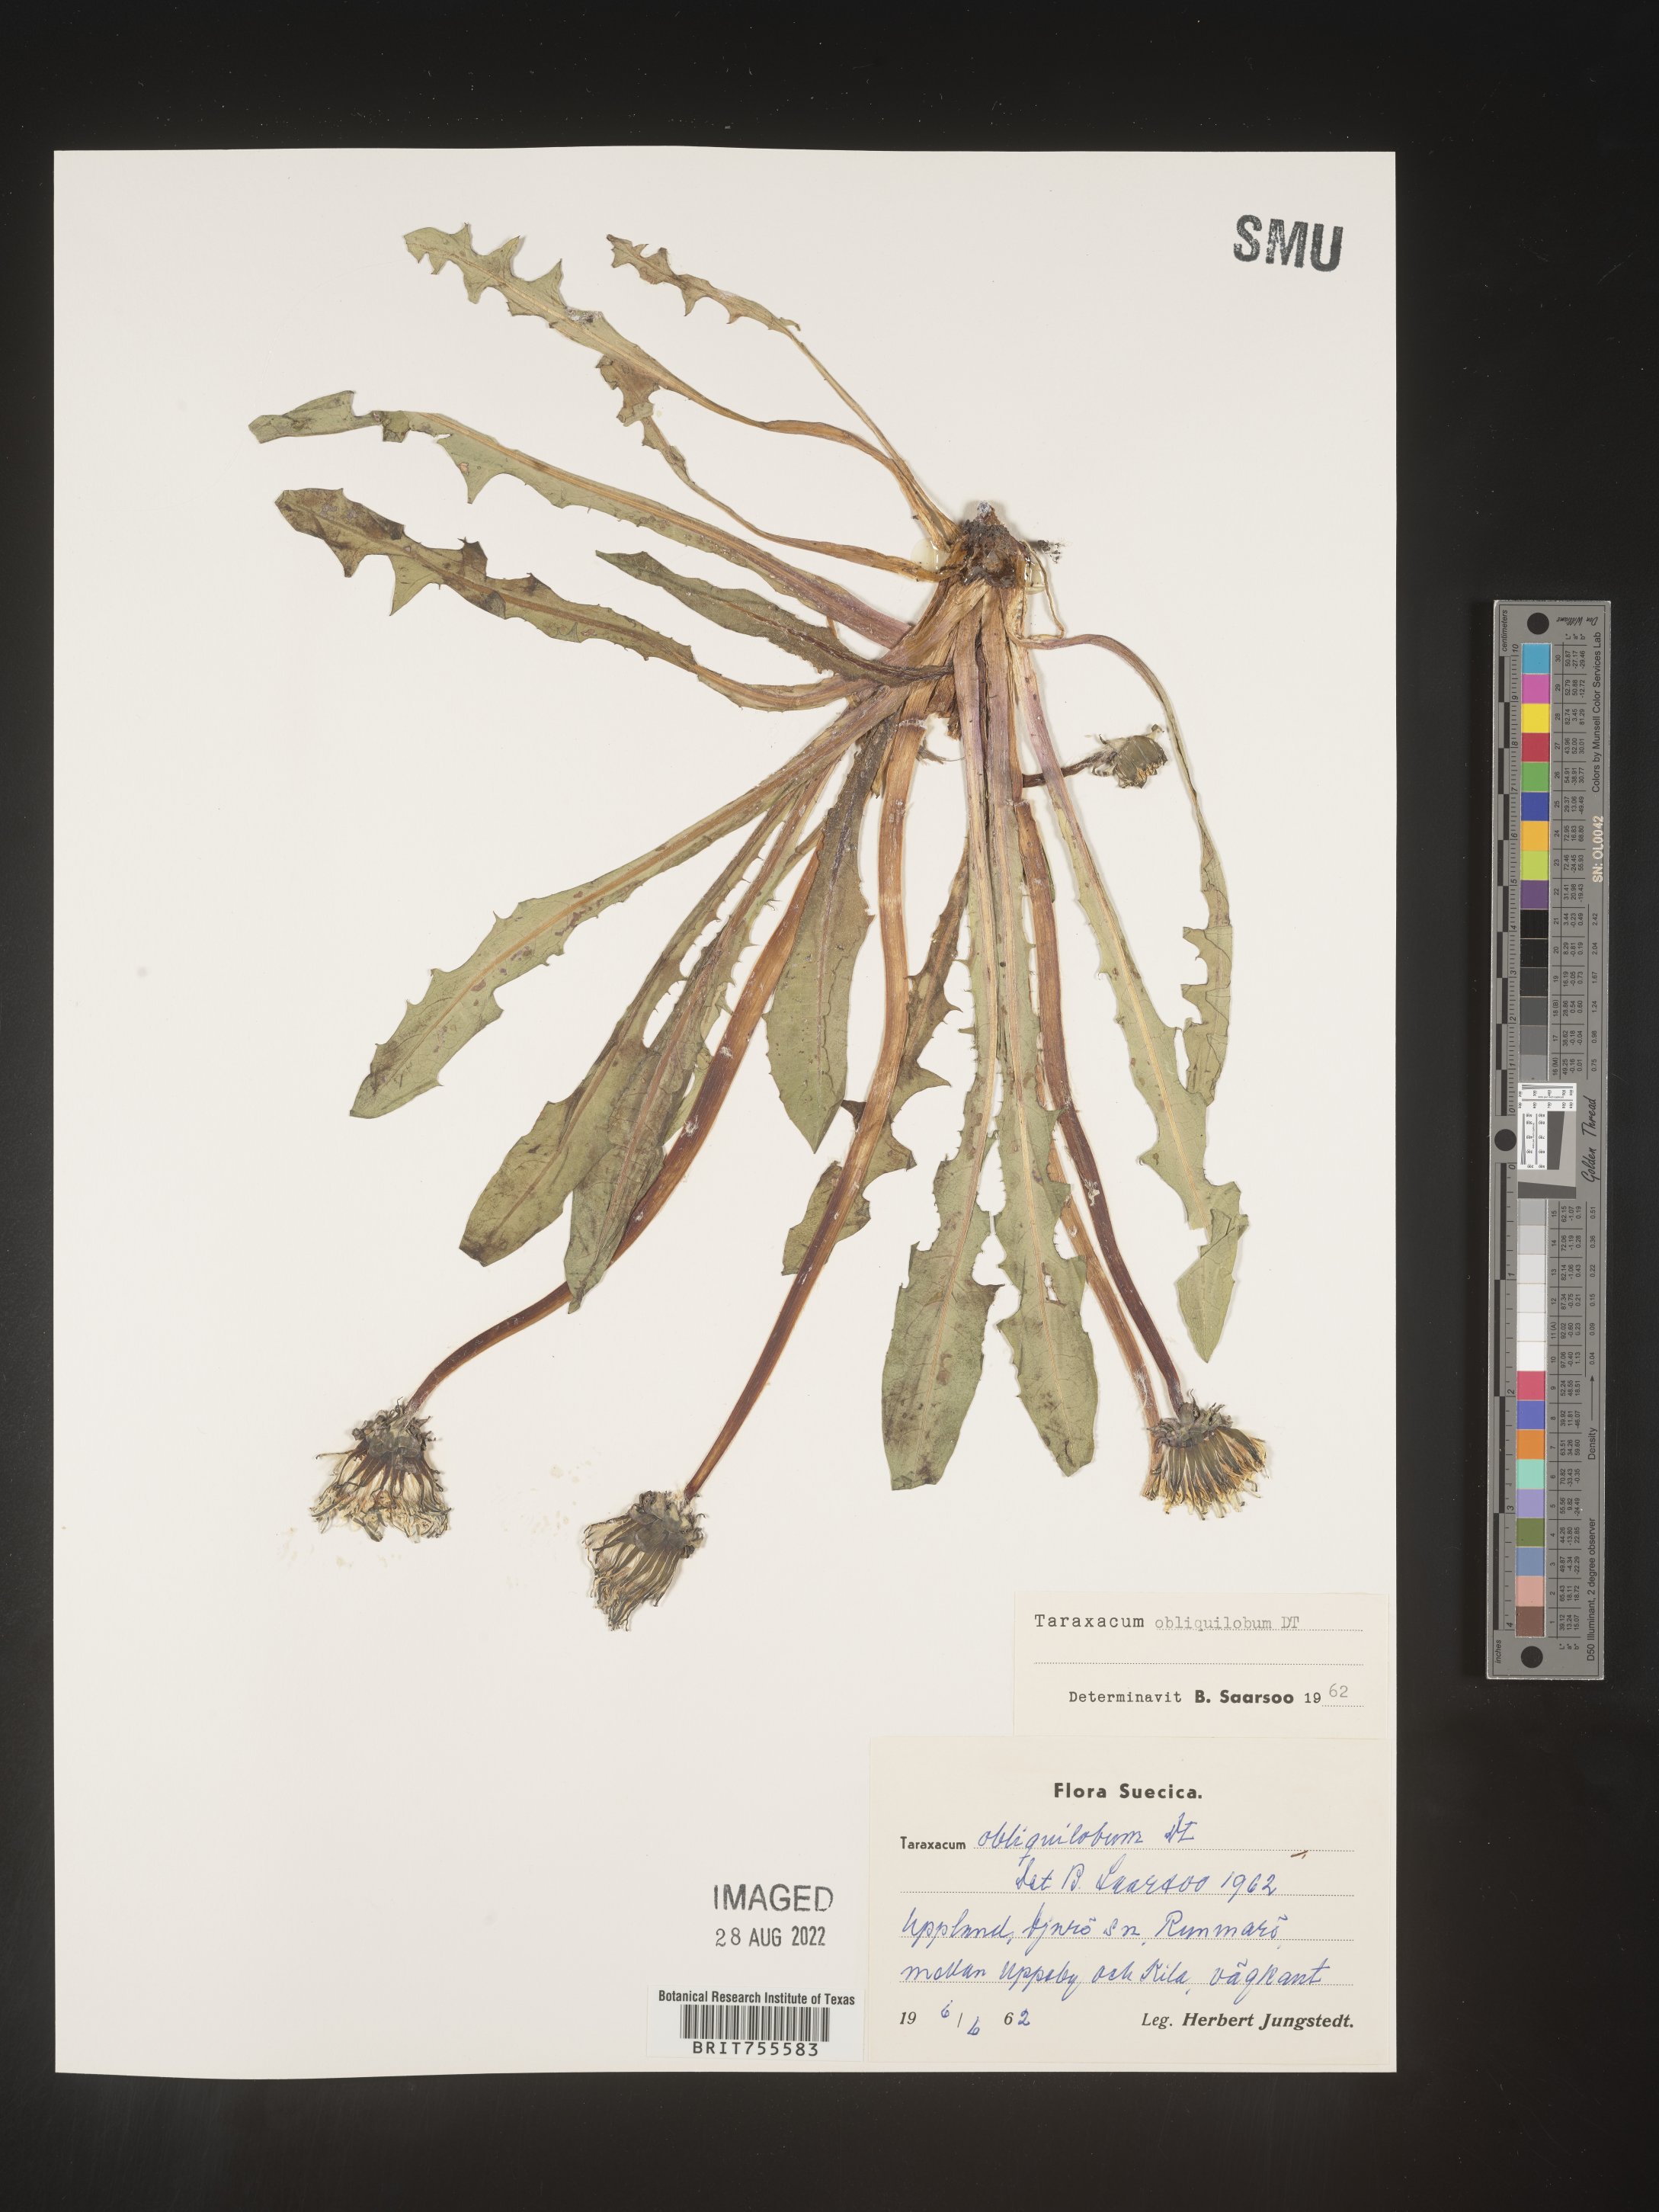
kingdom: Plantae
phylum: Tracheophyta
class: Magnoliopsida
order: Asterales
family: Asteraceae
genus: Taraxacum
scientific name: Taraxacum
